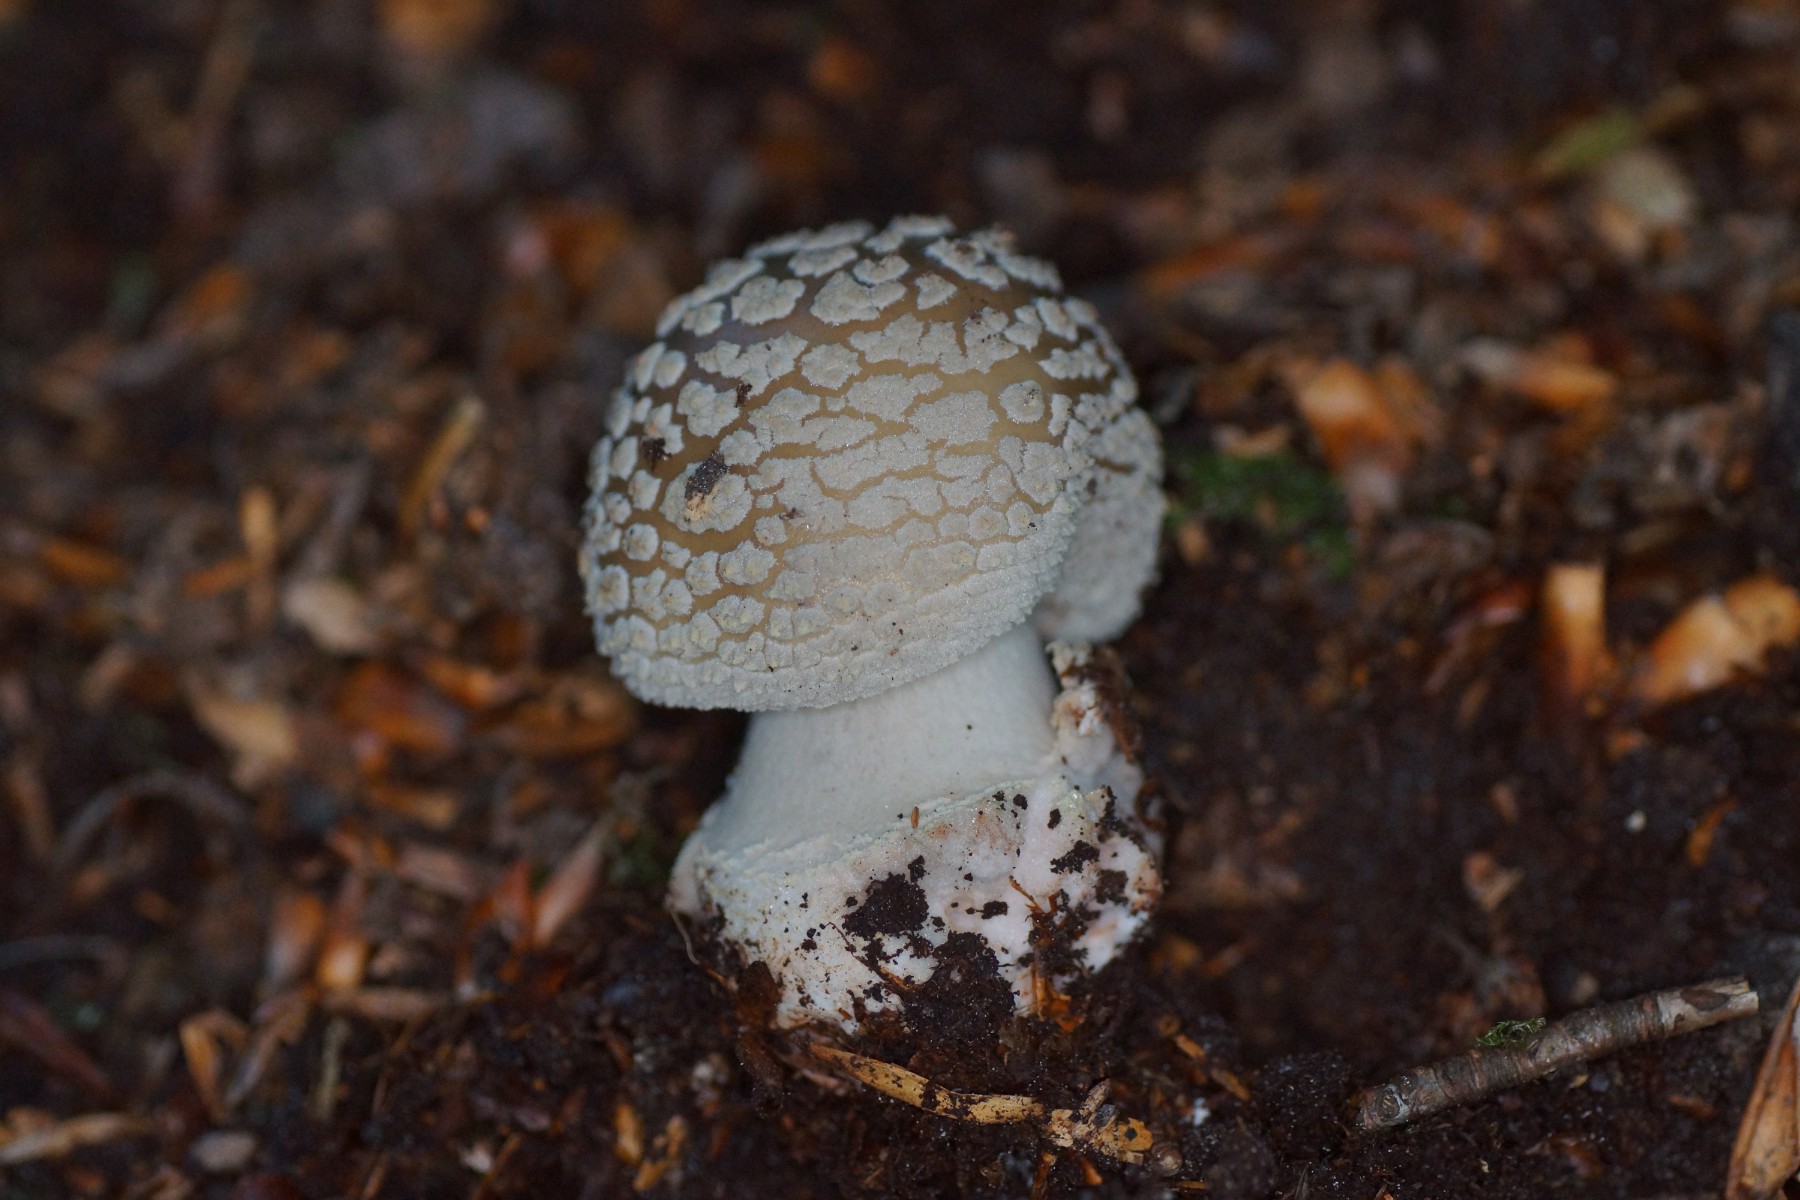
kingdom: Fungi
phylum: Basidiomycota
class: Agaricomycetes
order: Agaricales
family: Amanitaceae
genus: Amanita
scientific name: Amanita rubescens
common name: rødmende fluesvamp
